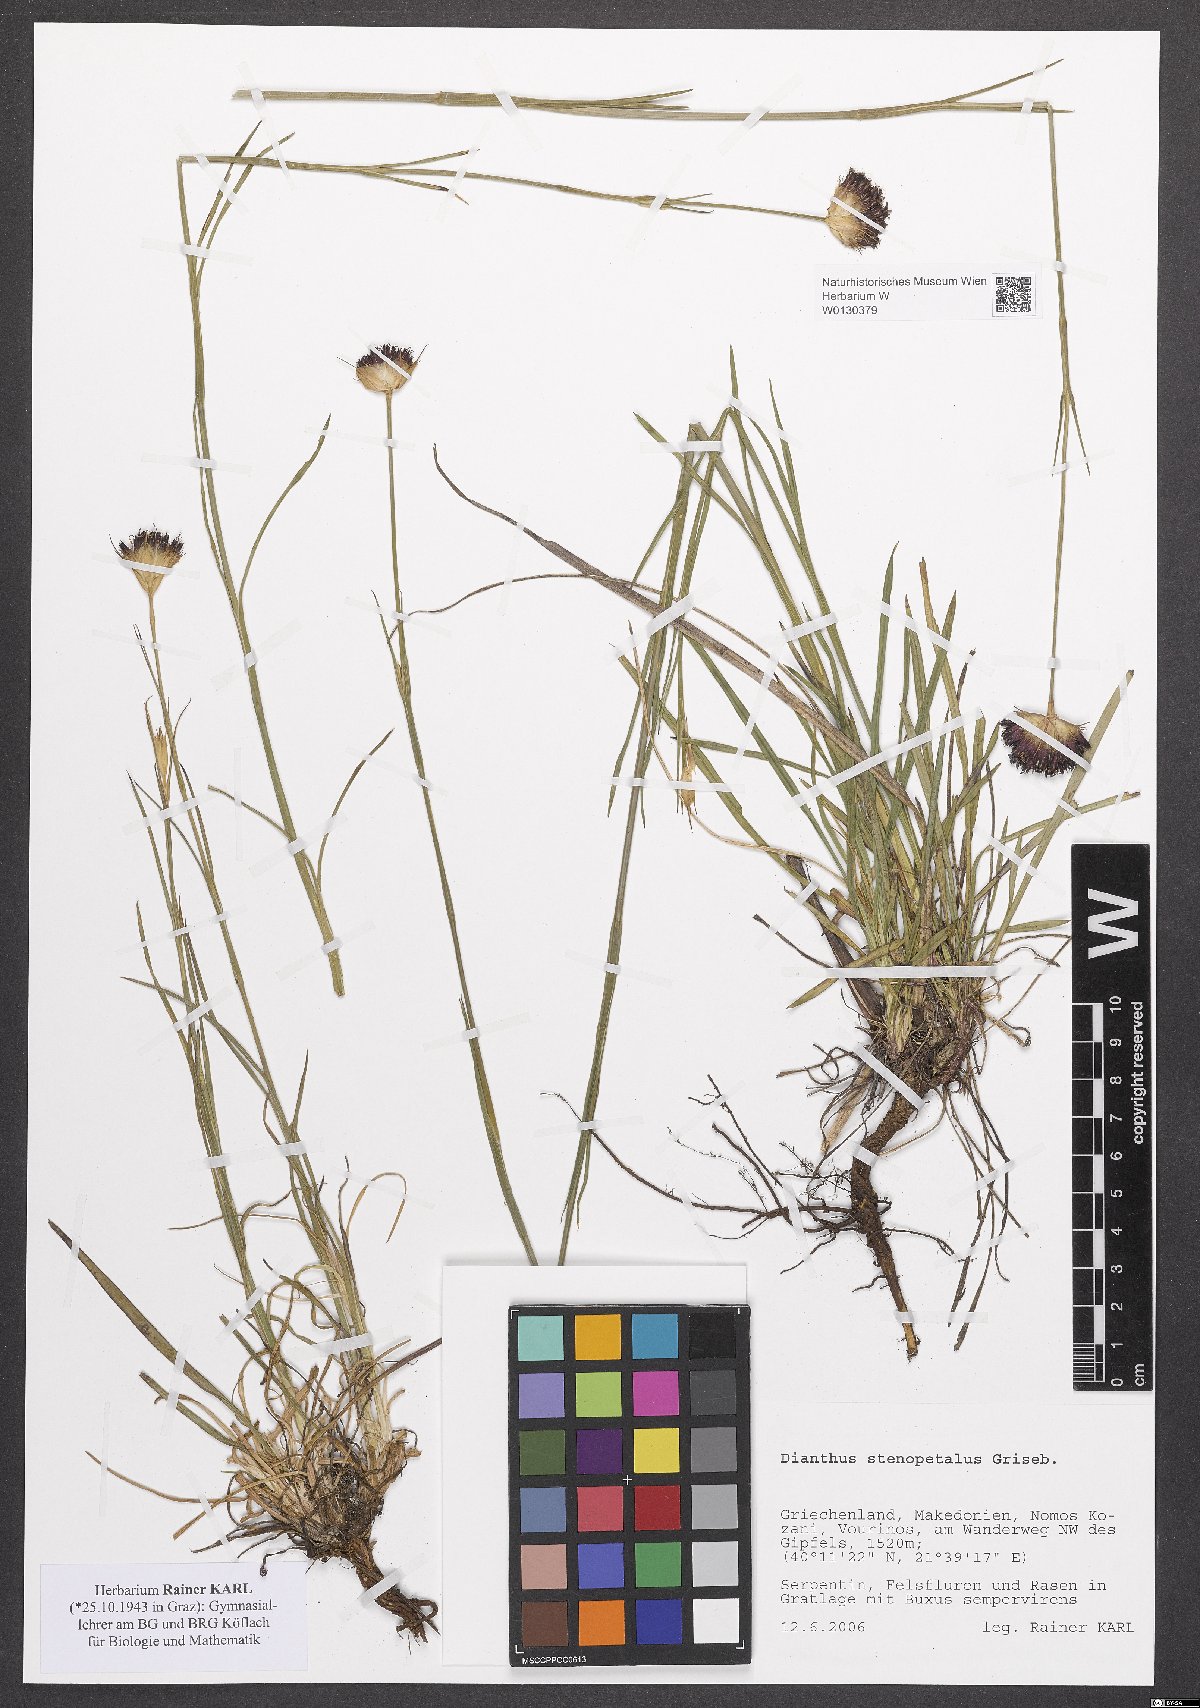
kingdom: Plantae
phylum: Tracheophyta
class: Magnoliopsida
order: Caryophyllales
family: Caryophyllaceae
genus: Dianthus
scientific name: Dianthus stenopetalus
